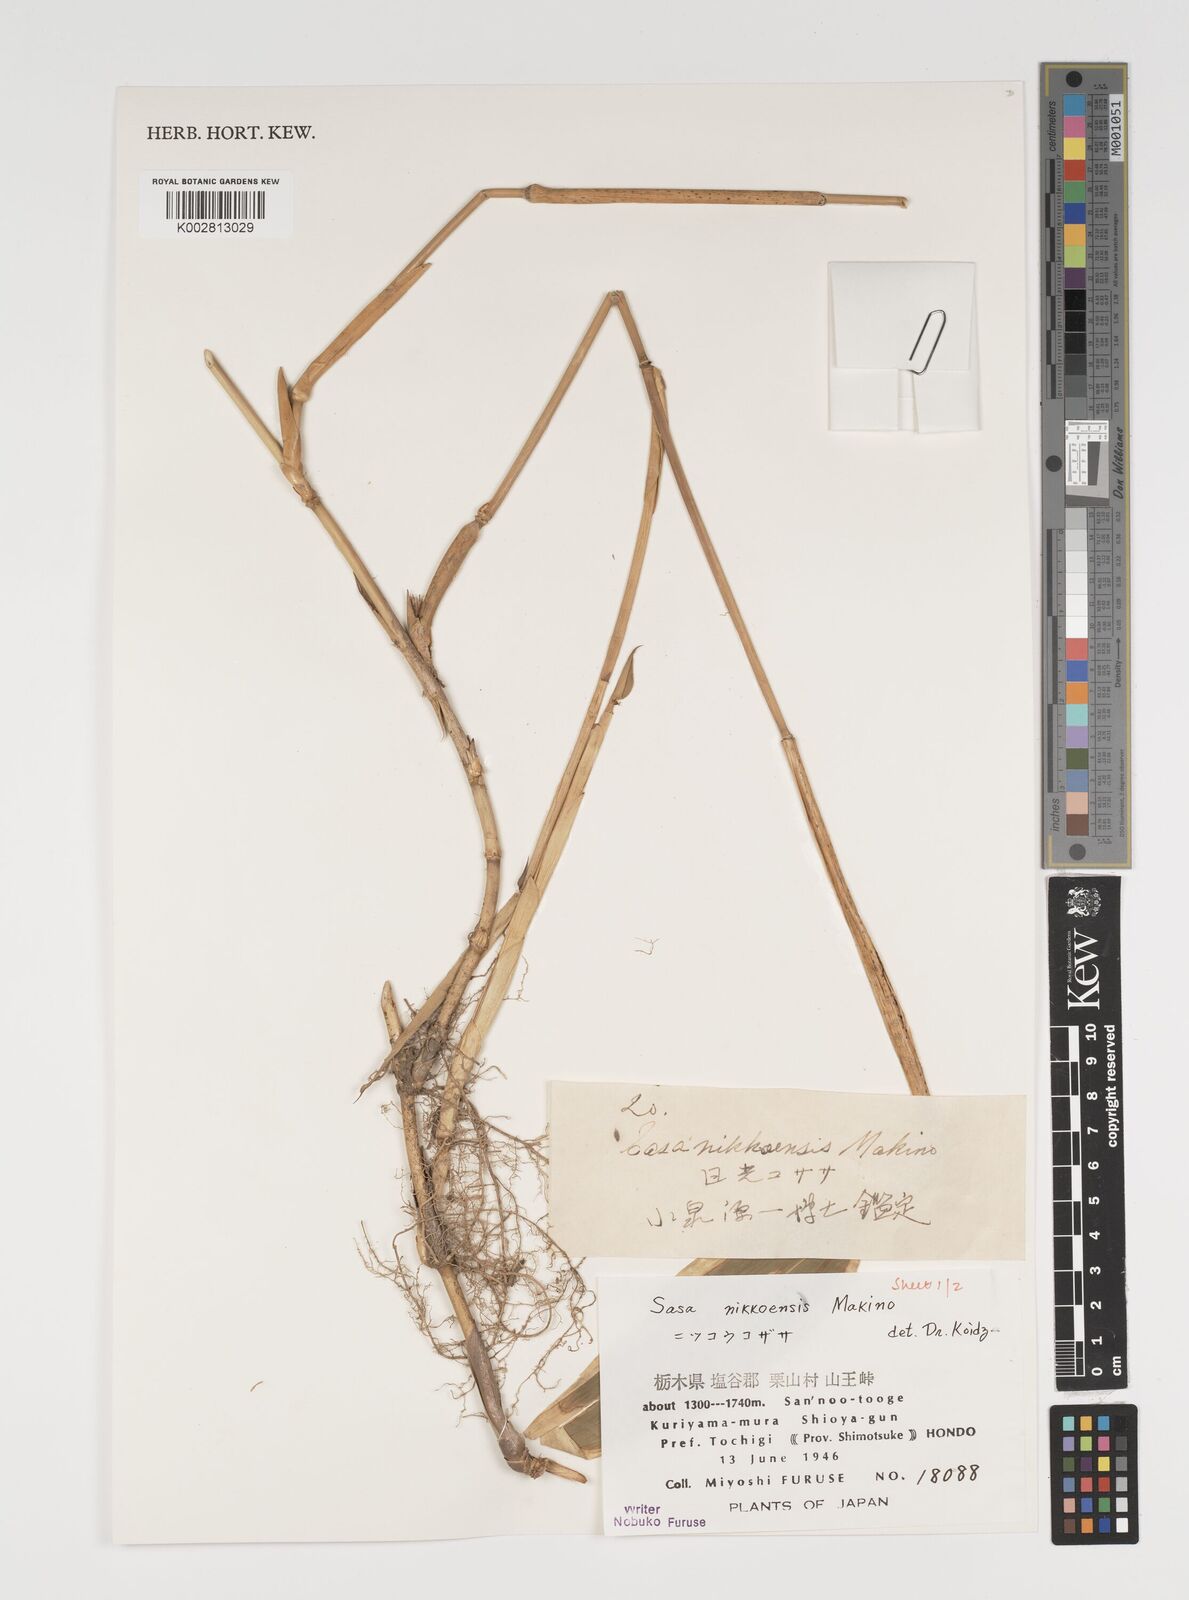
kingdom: Plantae
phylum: Tracheophyta
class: Liliopsida
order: Poales
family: Poaceae
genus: Sasa
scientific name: Sasa chartacea
